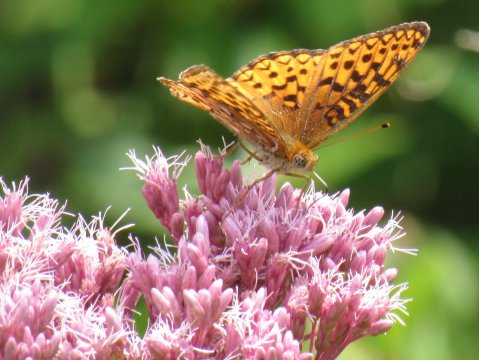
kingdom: Animalia
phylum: Arthropoda
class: Insecta
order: Lepidoptera
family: Nymphalidae
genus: Speyeria
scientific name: Speyeria atlantis
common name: Atlantis Fritillary
